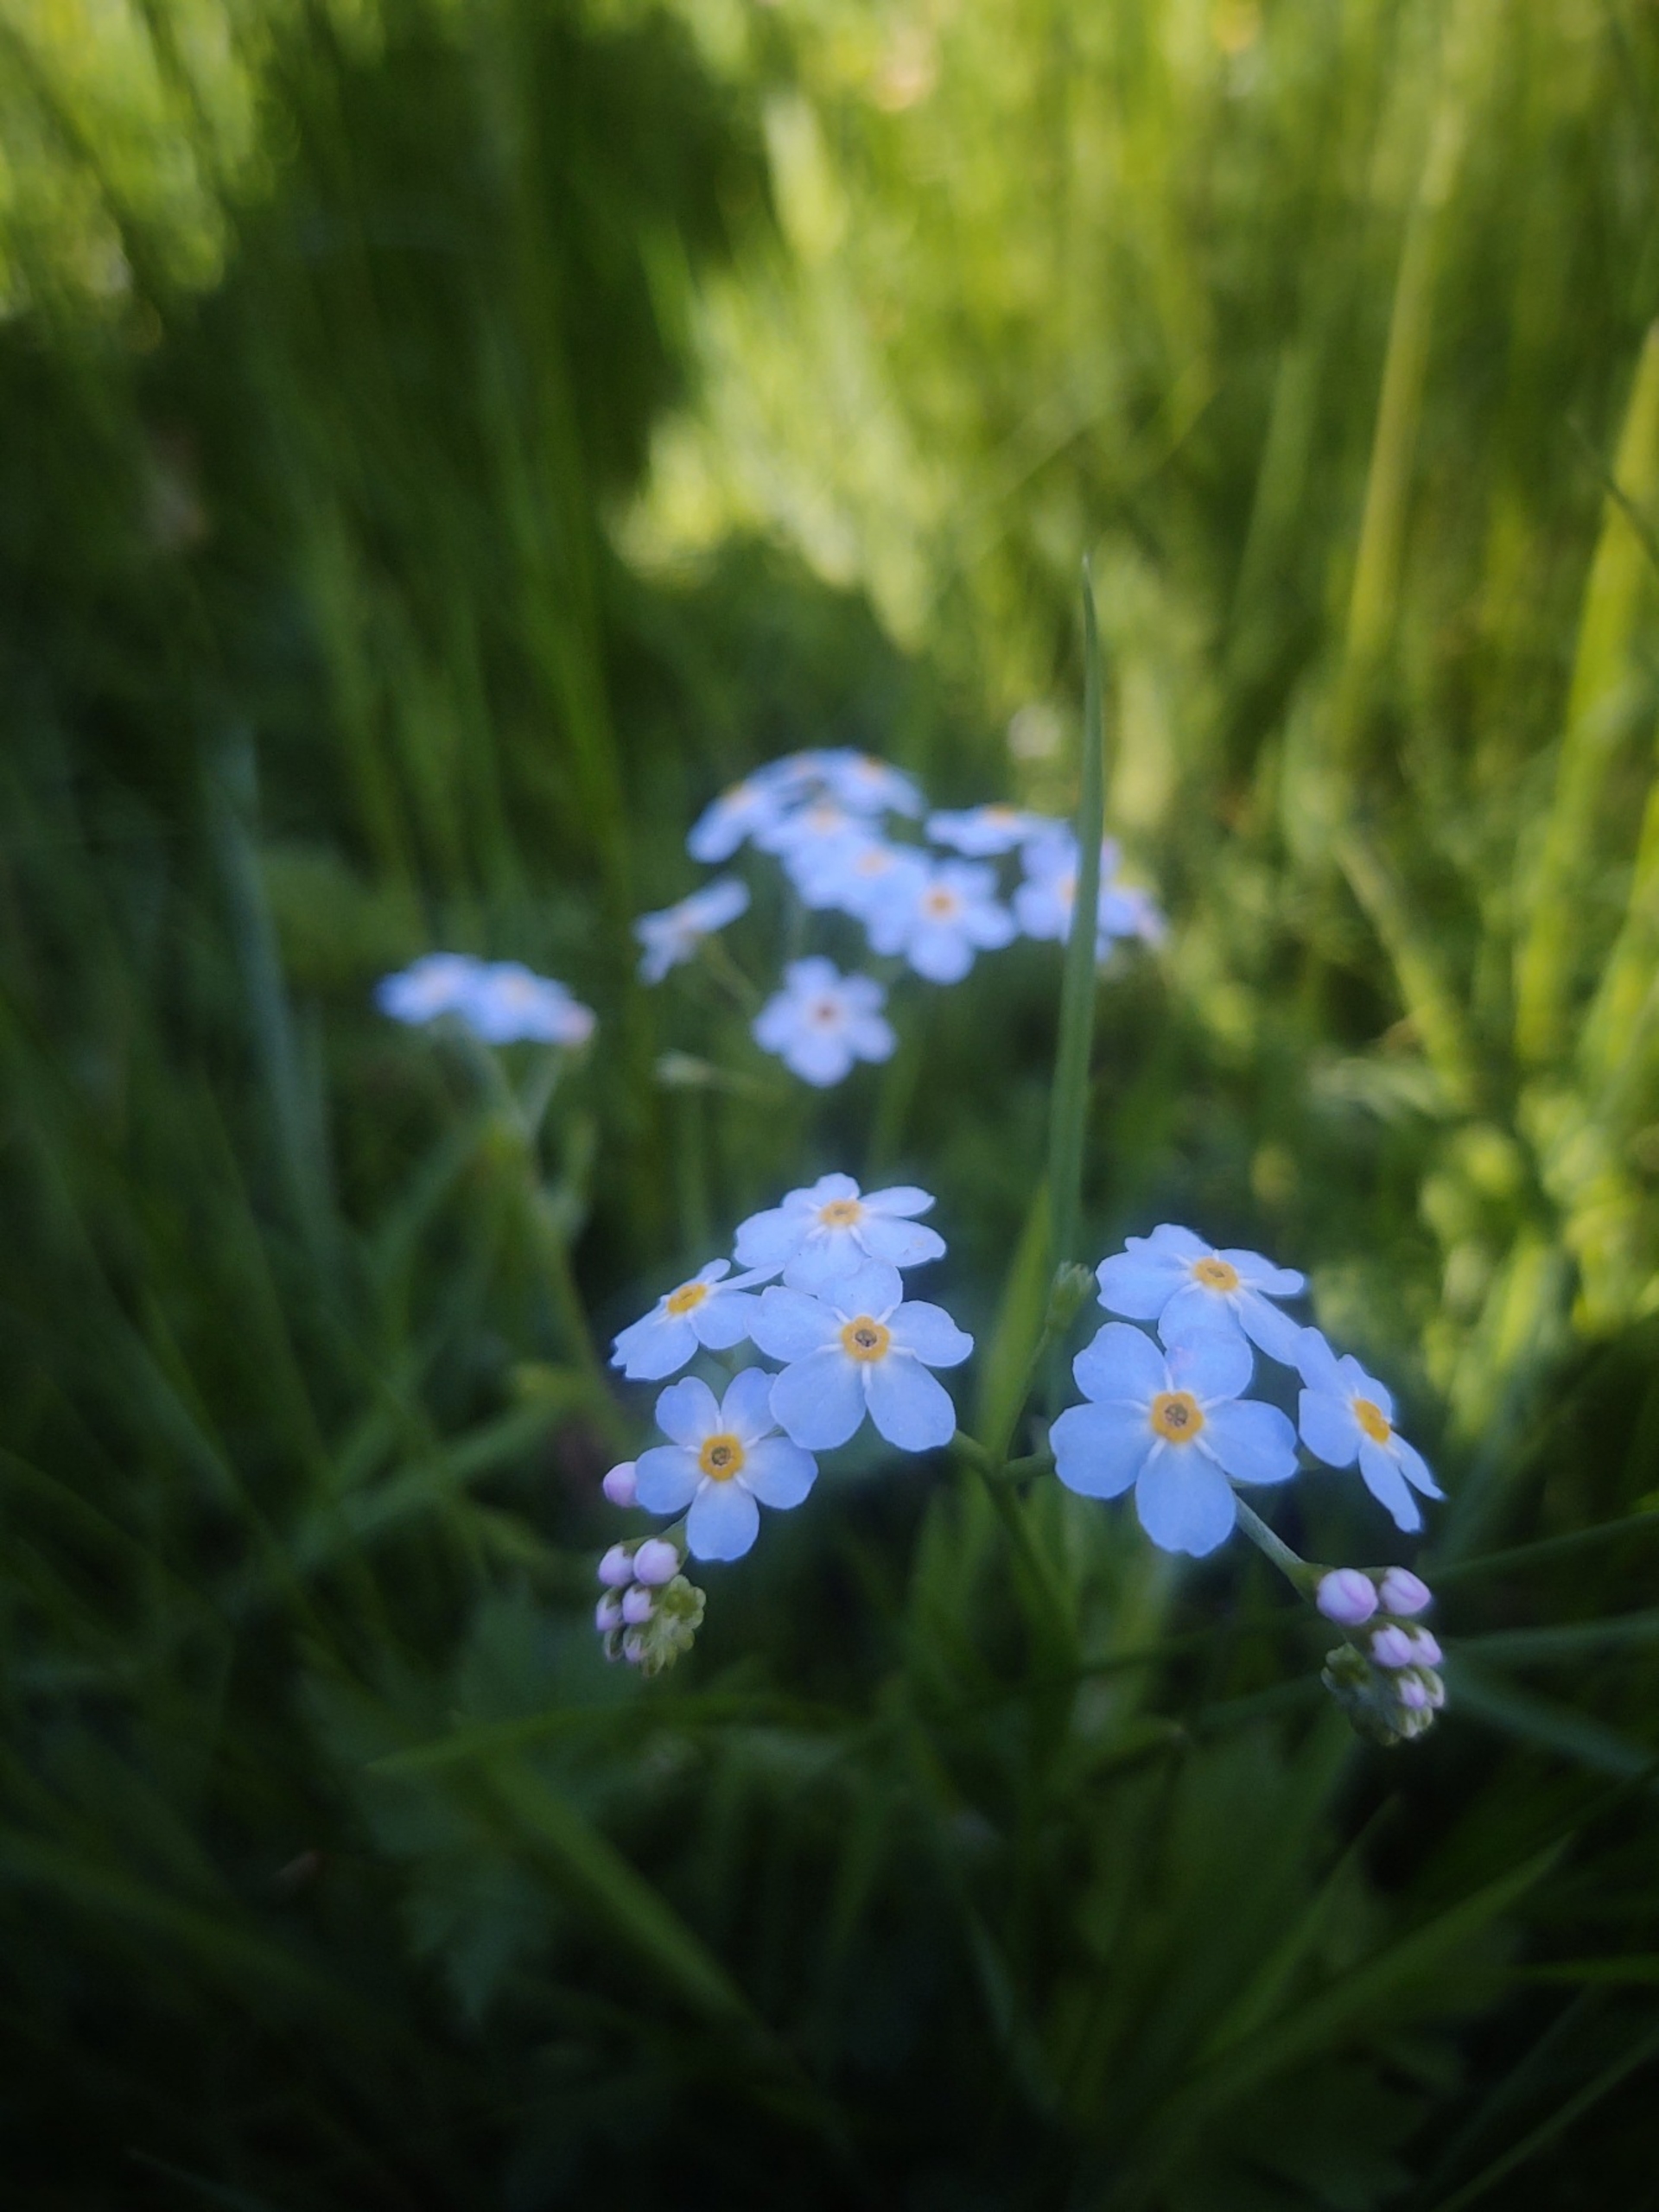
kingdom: Plantae
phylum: Tracheophyta
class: Magnoliopsida
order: Boraginales
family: Boraginaceae
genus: Myosotis
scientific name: Myosotis scorpioides
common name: Eng-forglemmigej
